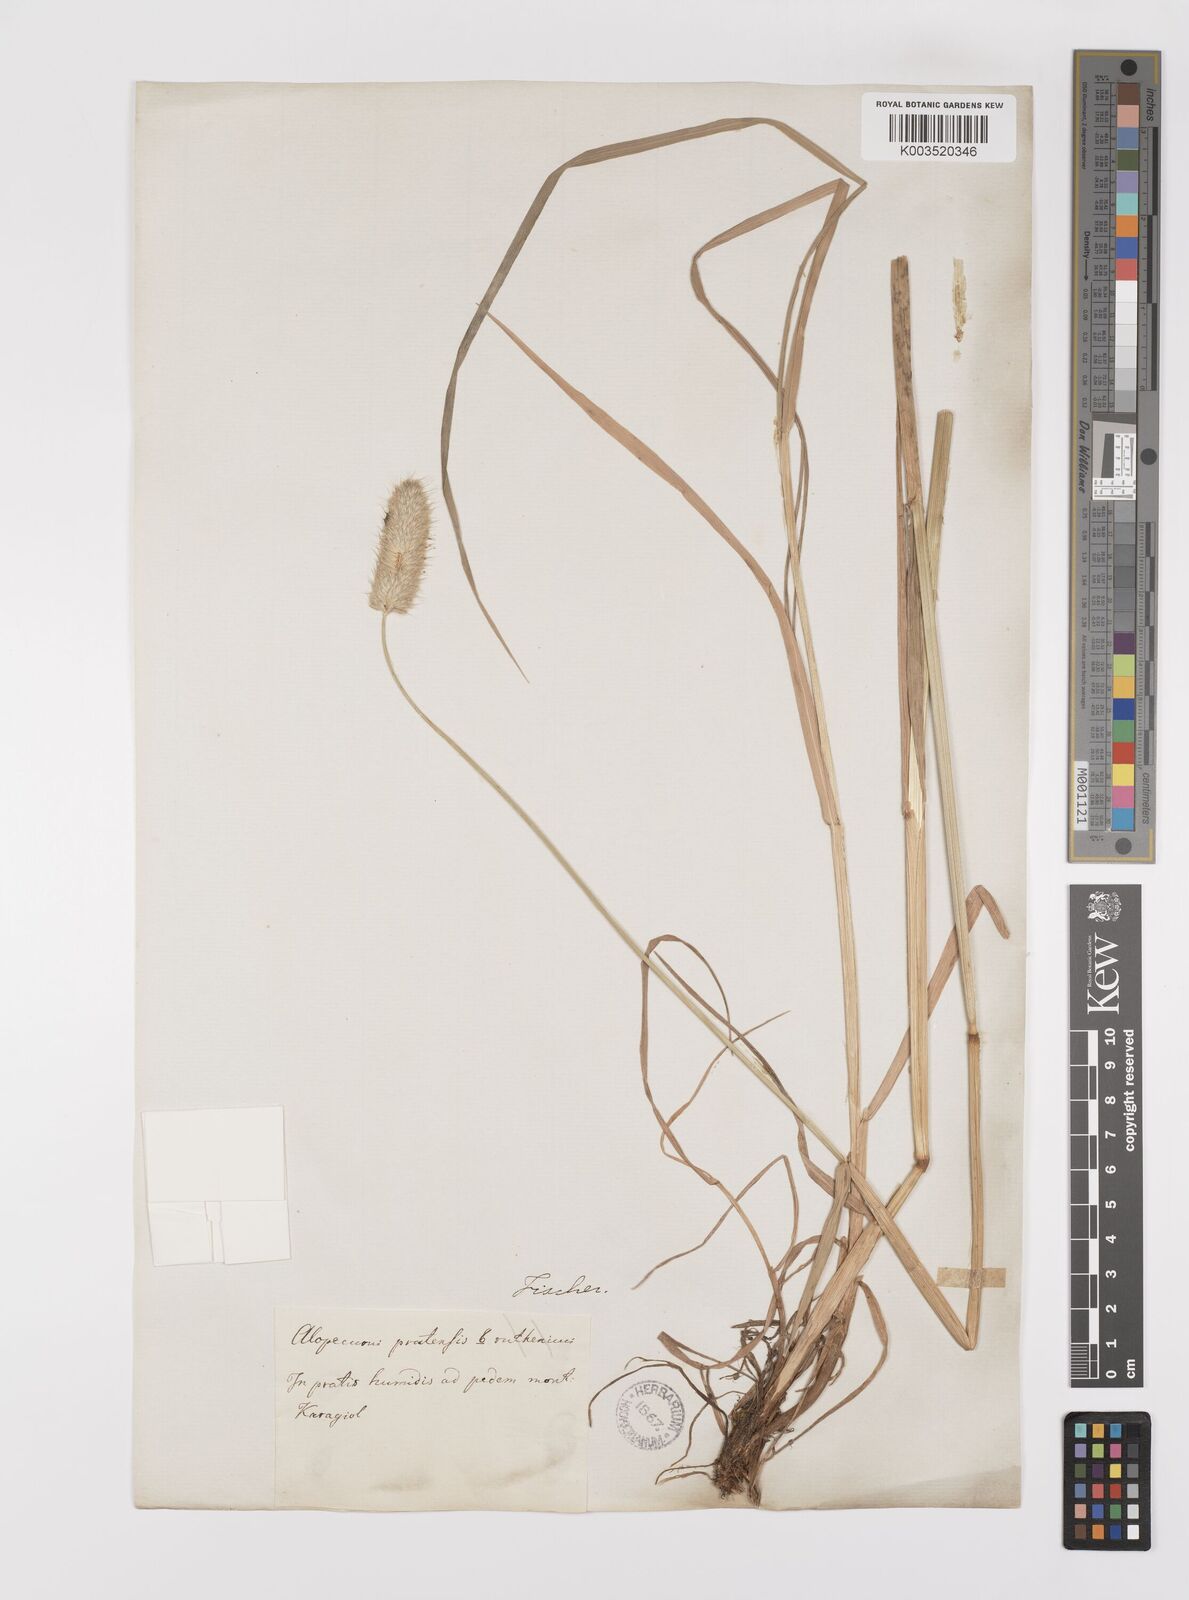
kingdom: Plantae
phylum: Tracheophyta
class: Liliopsida
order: Poales
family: Poaceae
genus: Alopecurus
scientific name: Alopecurus arundinaceus
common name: Creeping meadow foxtail
